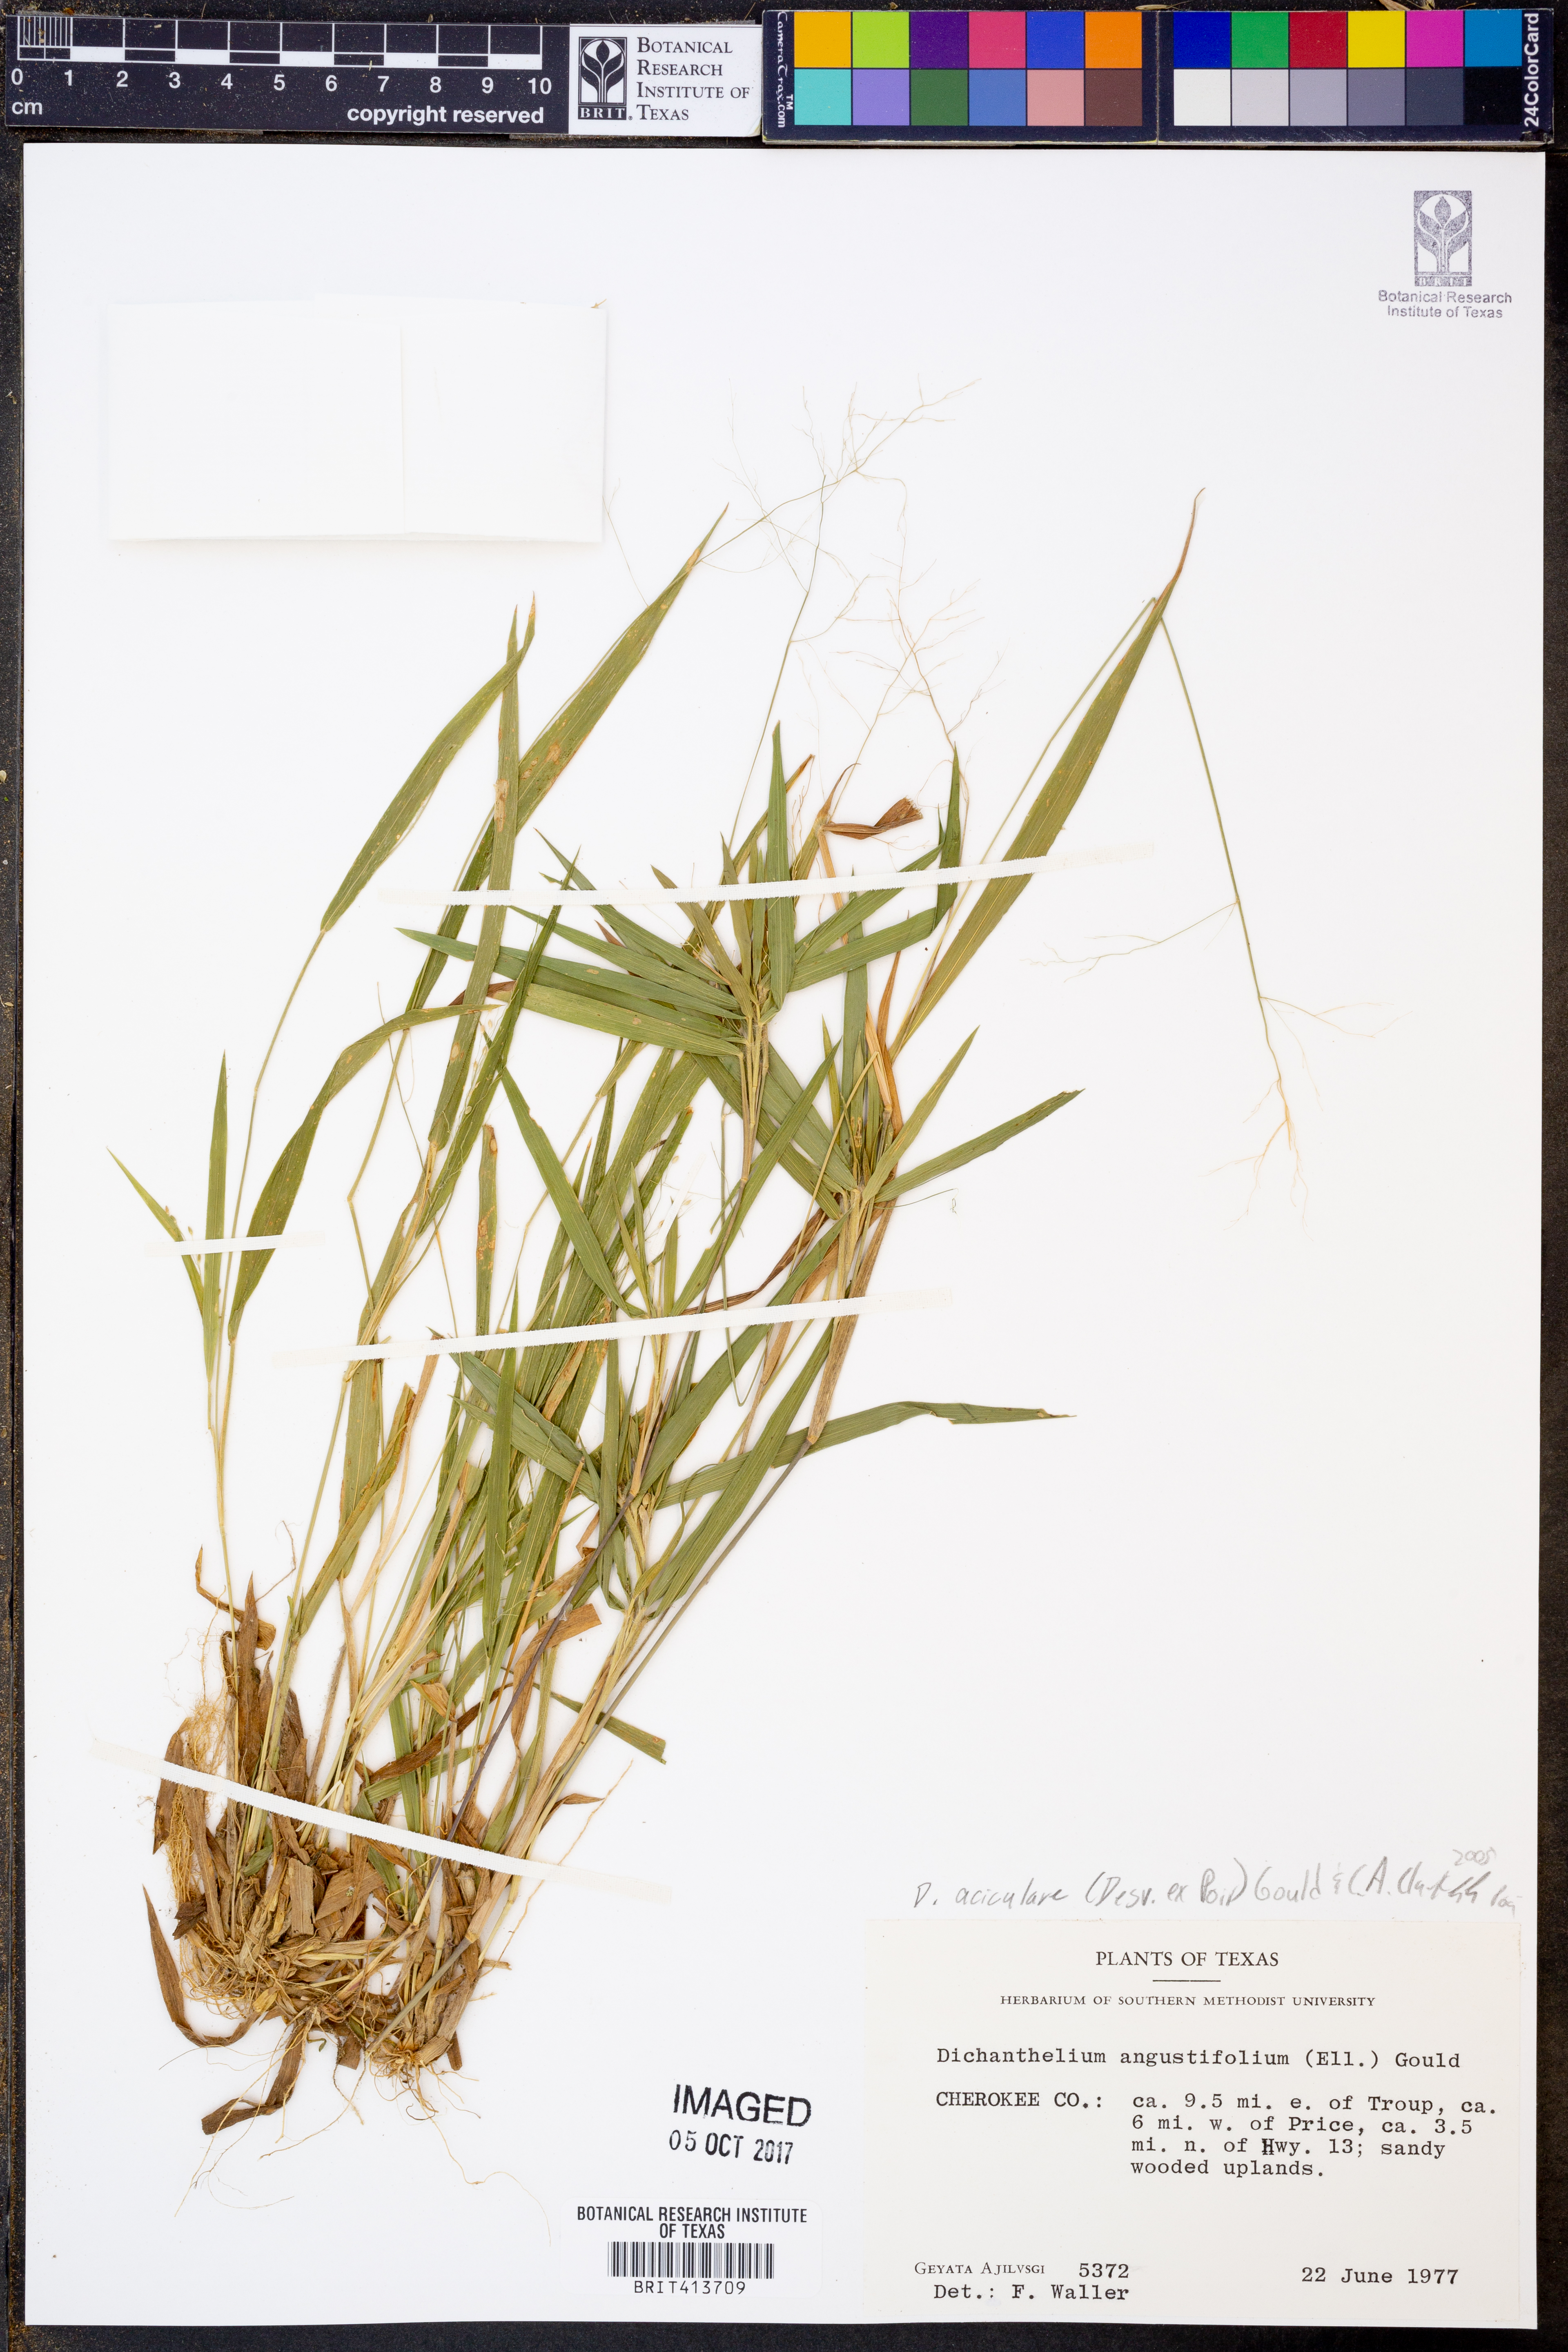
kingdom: Plantae
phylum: Tracheophyta
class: Liliopsida
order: Poales
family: Poaceae
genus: Dichanthelium
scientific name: Dichanthelium angustifolium
